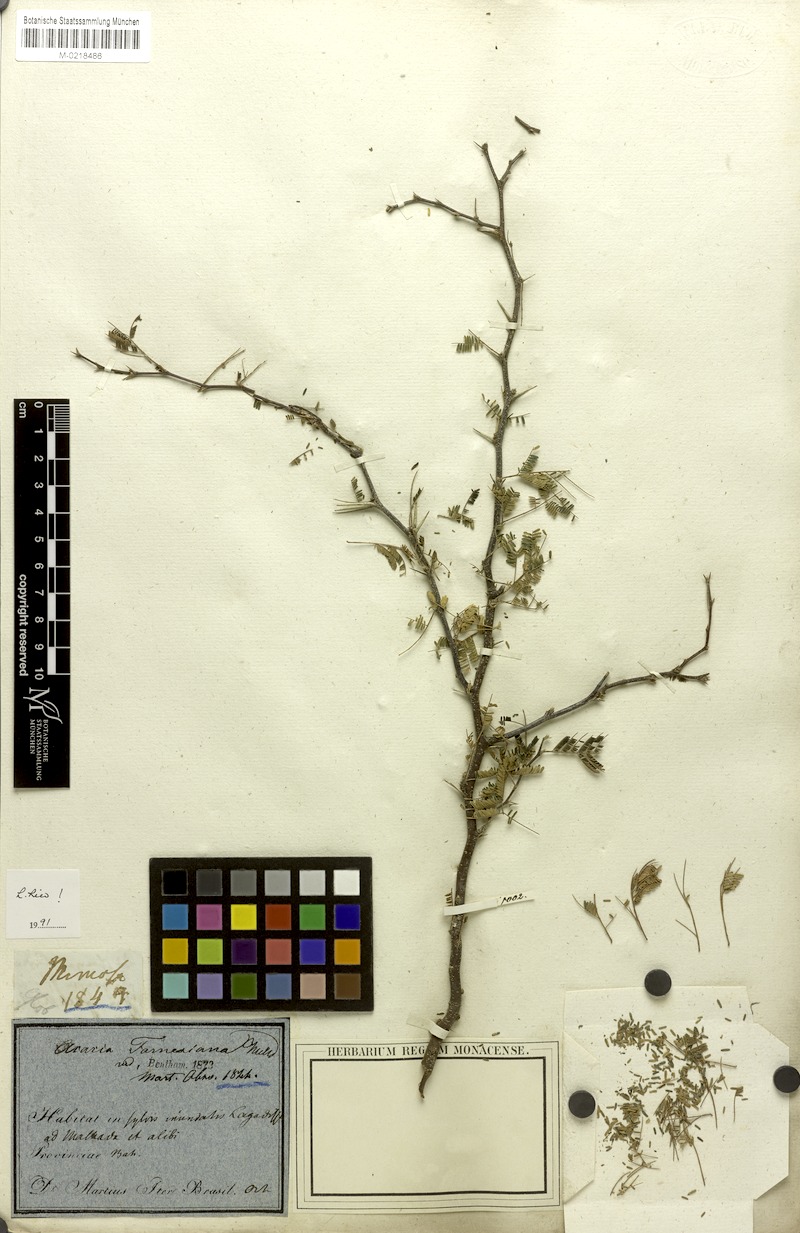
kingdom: Plantae
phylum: Tracheophyta
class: Magnoliopsida
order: Fabales
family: Fabaceae
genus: Vachellia
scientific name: Vachellia farnesiana
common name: Sweet acacia
